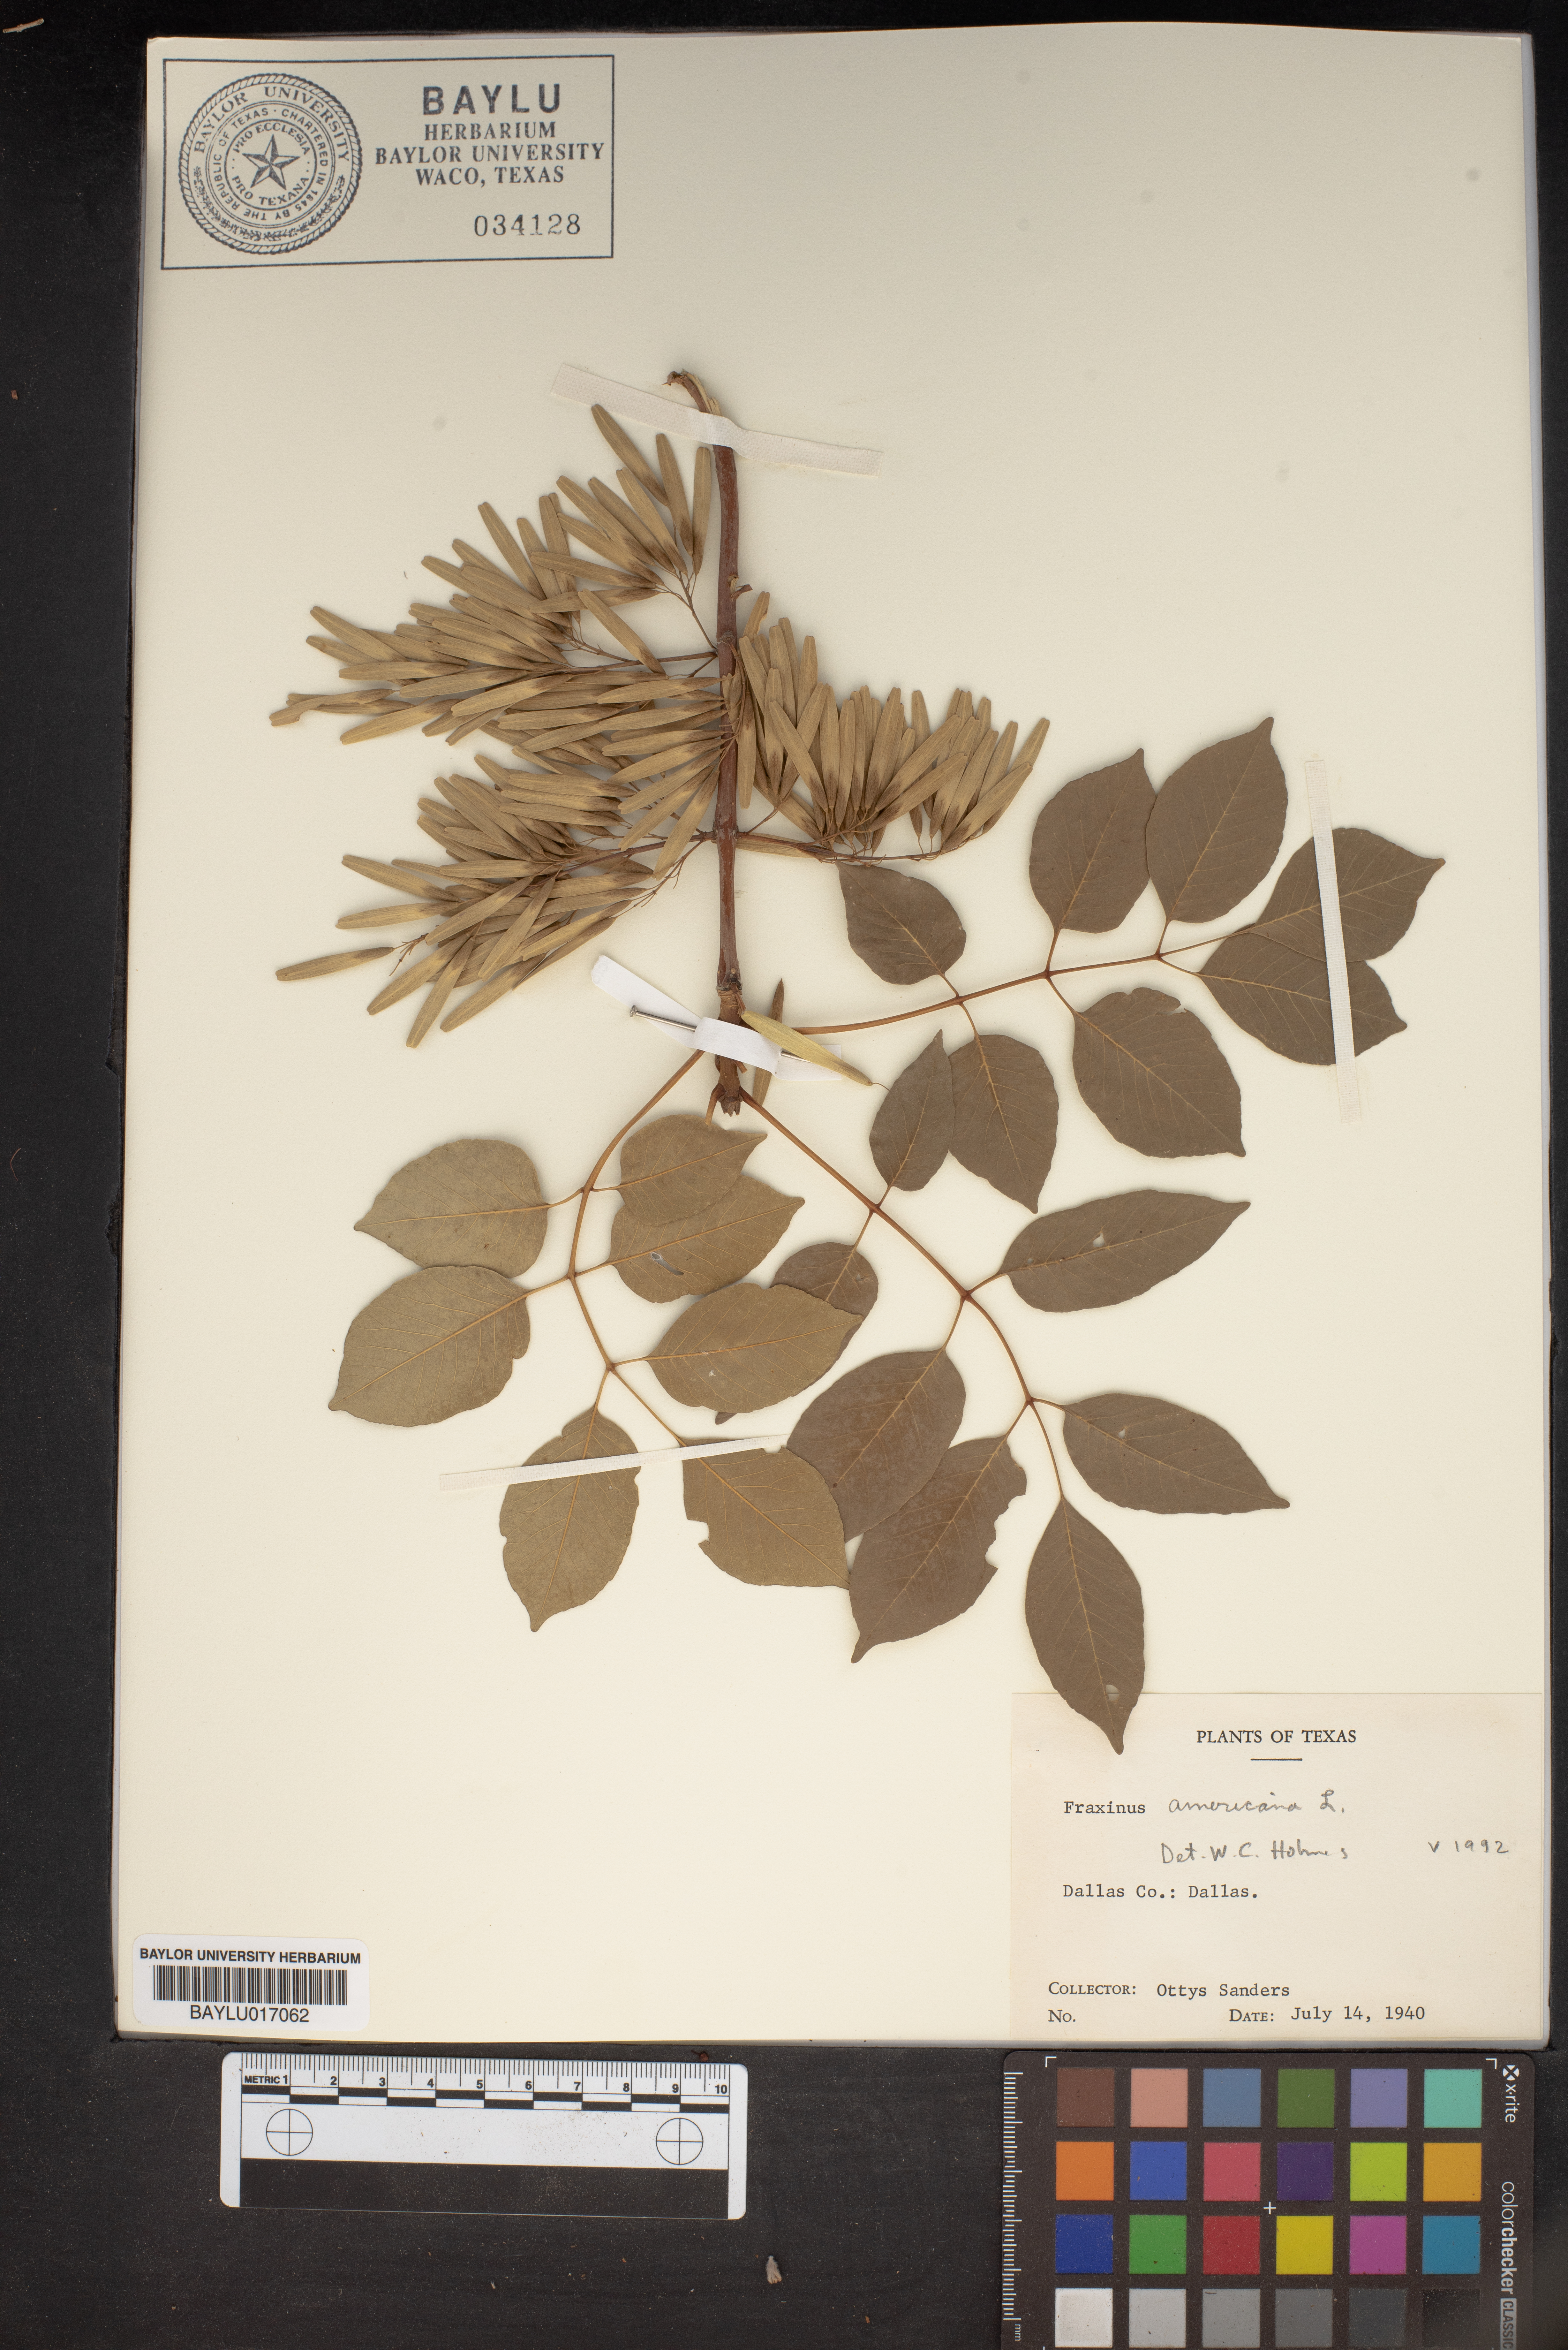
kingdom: Plantae
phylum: Tracheophyta
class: Magnoliopsida
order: Lamiales
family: Oleaceae
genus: Fraxinus
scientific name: Fraxinus americana
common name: White ash
